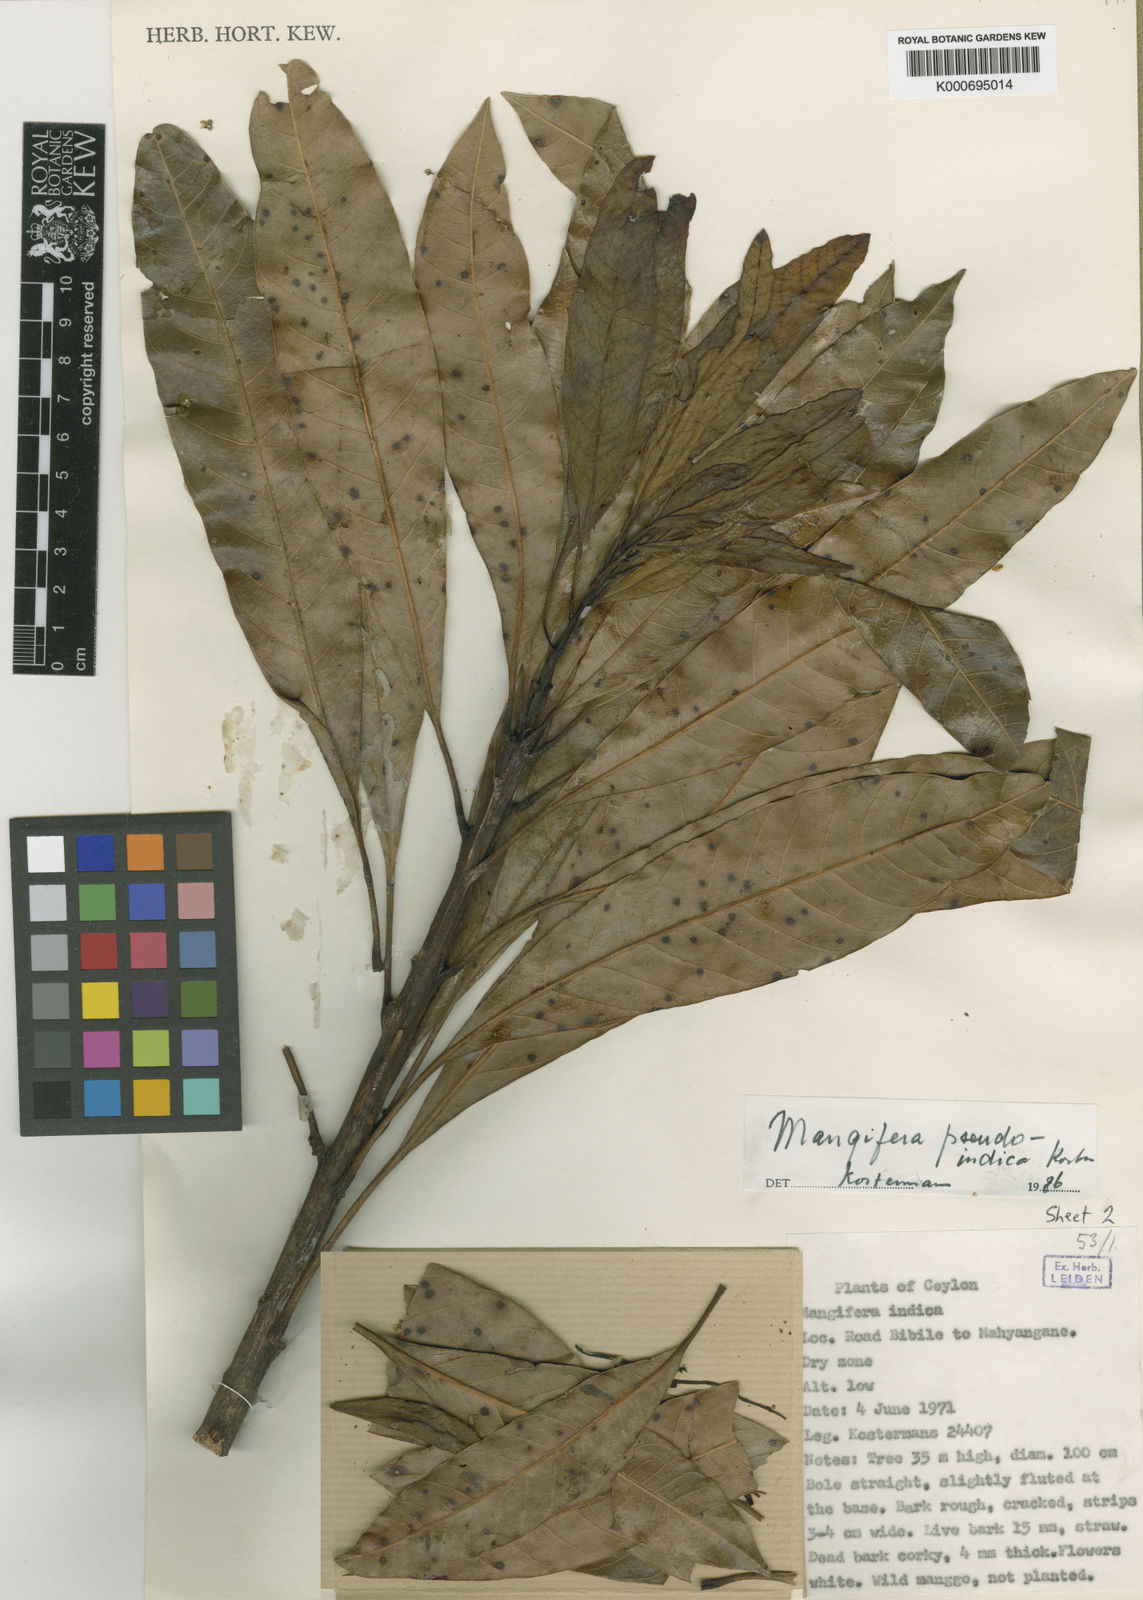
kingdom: Plantae
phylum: Tracheophyta
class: Magnoliopsida
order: Sapindales
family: Anacardiaceae
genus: Mangifera
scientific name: Mangifera pseudoindica
